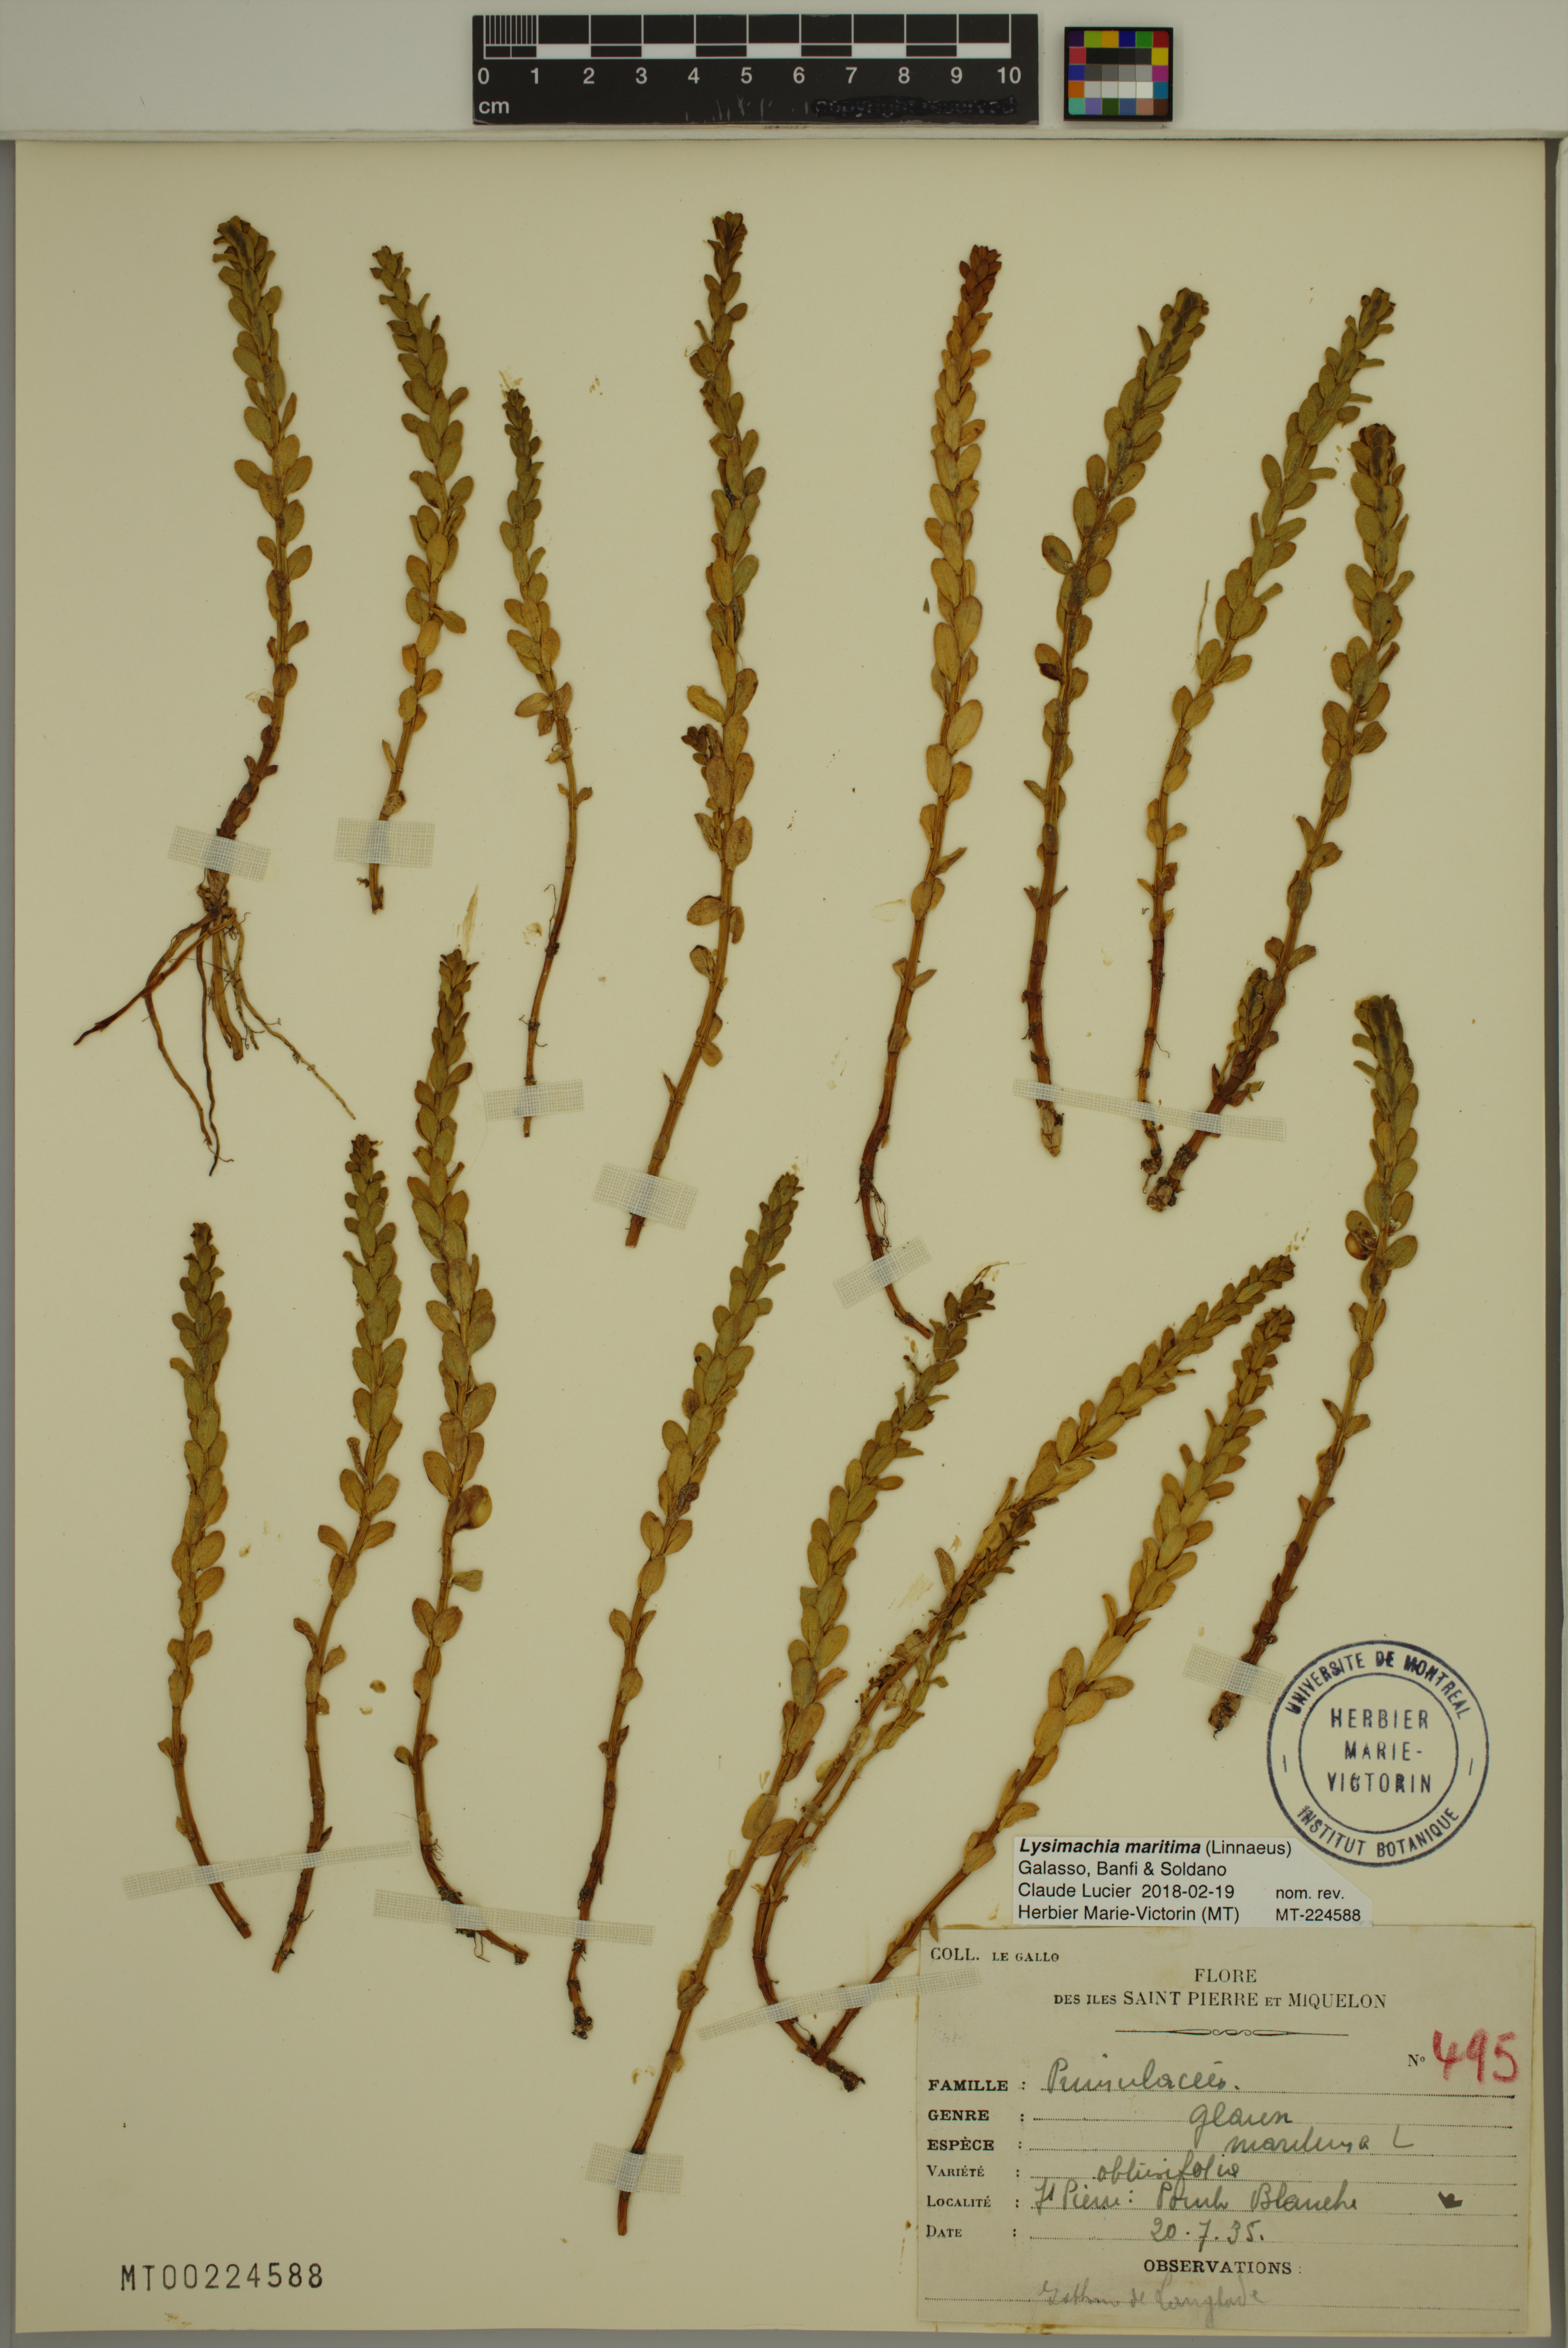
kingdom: Plantae
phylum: Tracheophyta
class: Magnoliopsida
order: Ericales
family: Primulaceae
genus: Lysimachia
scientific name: Lysimachia maritima
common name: Sea milkwort
